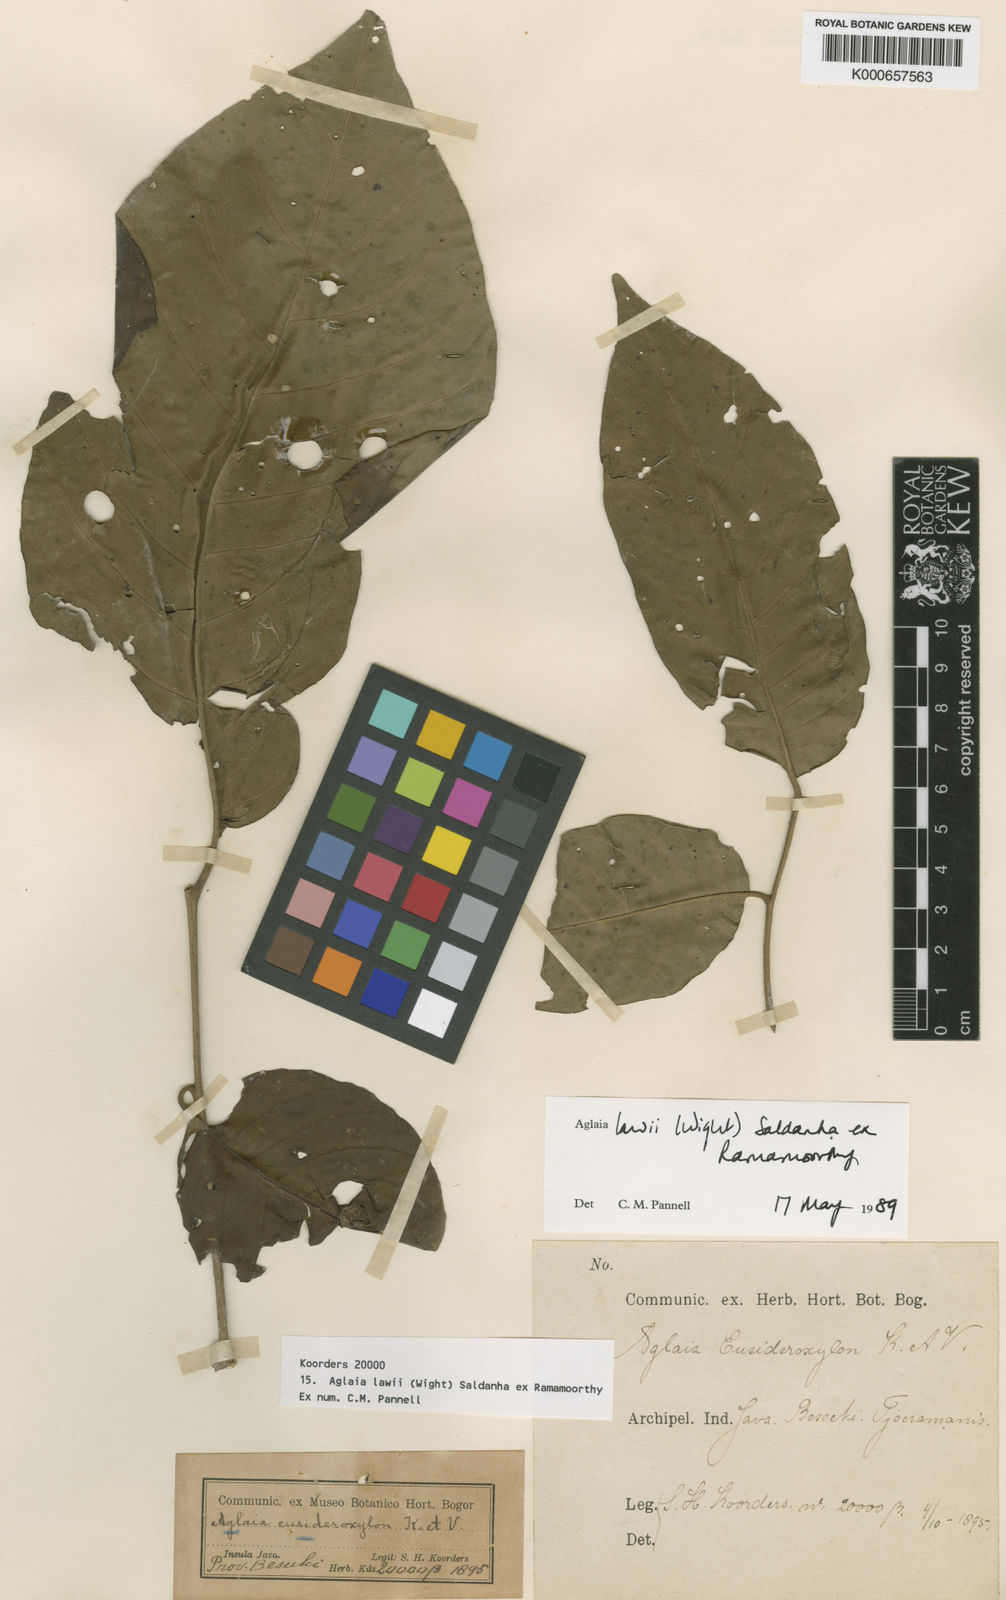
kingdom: Plantae
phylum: Tracheophyta
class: Magnoliopsida
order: Sapindales
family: Meliaceae
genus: Aglaia
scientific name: Aglaia lawii
